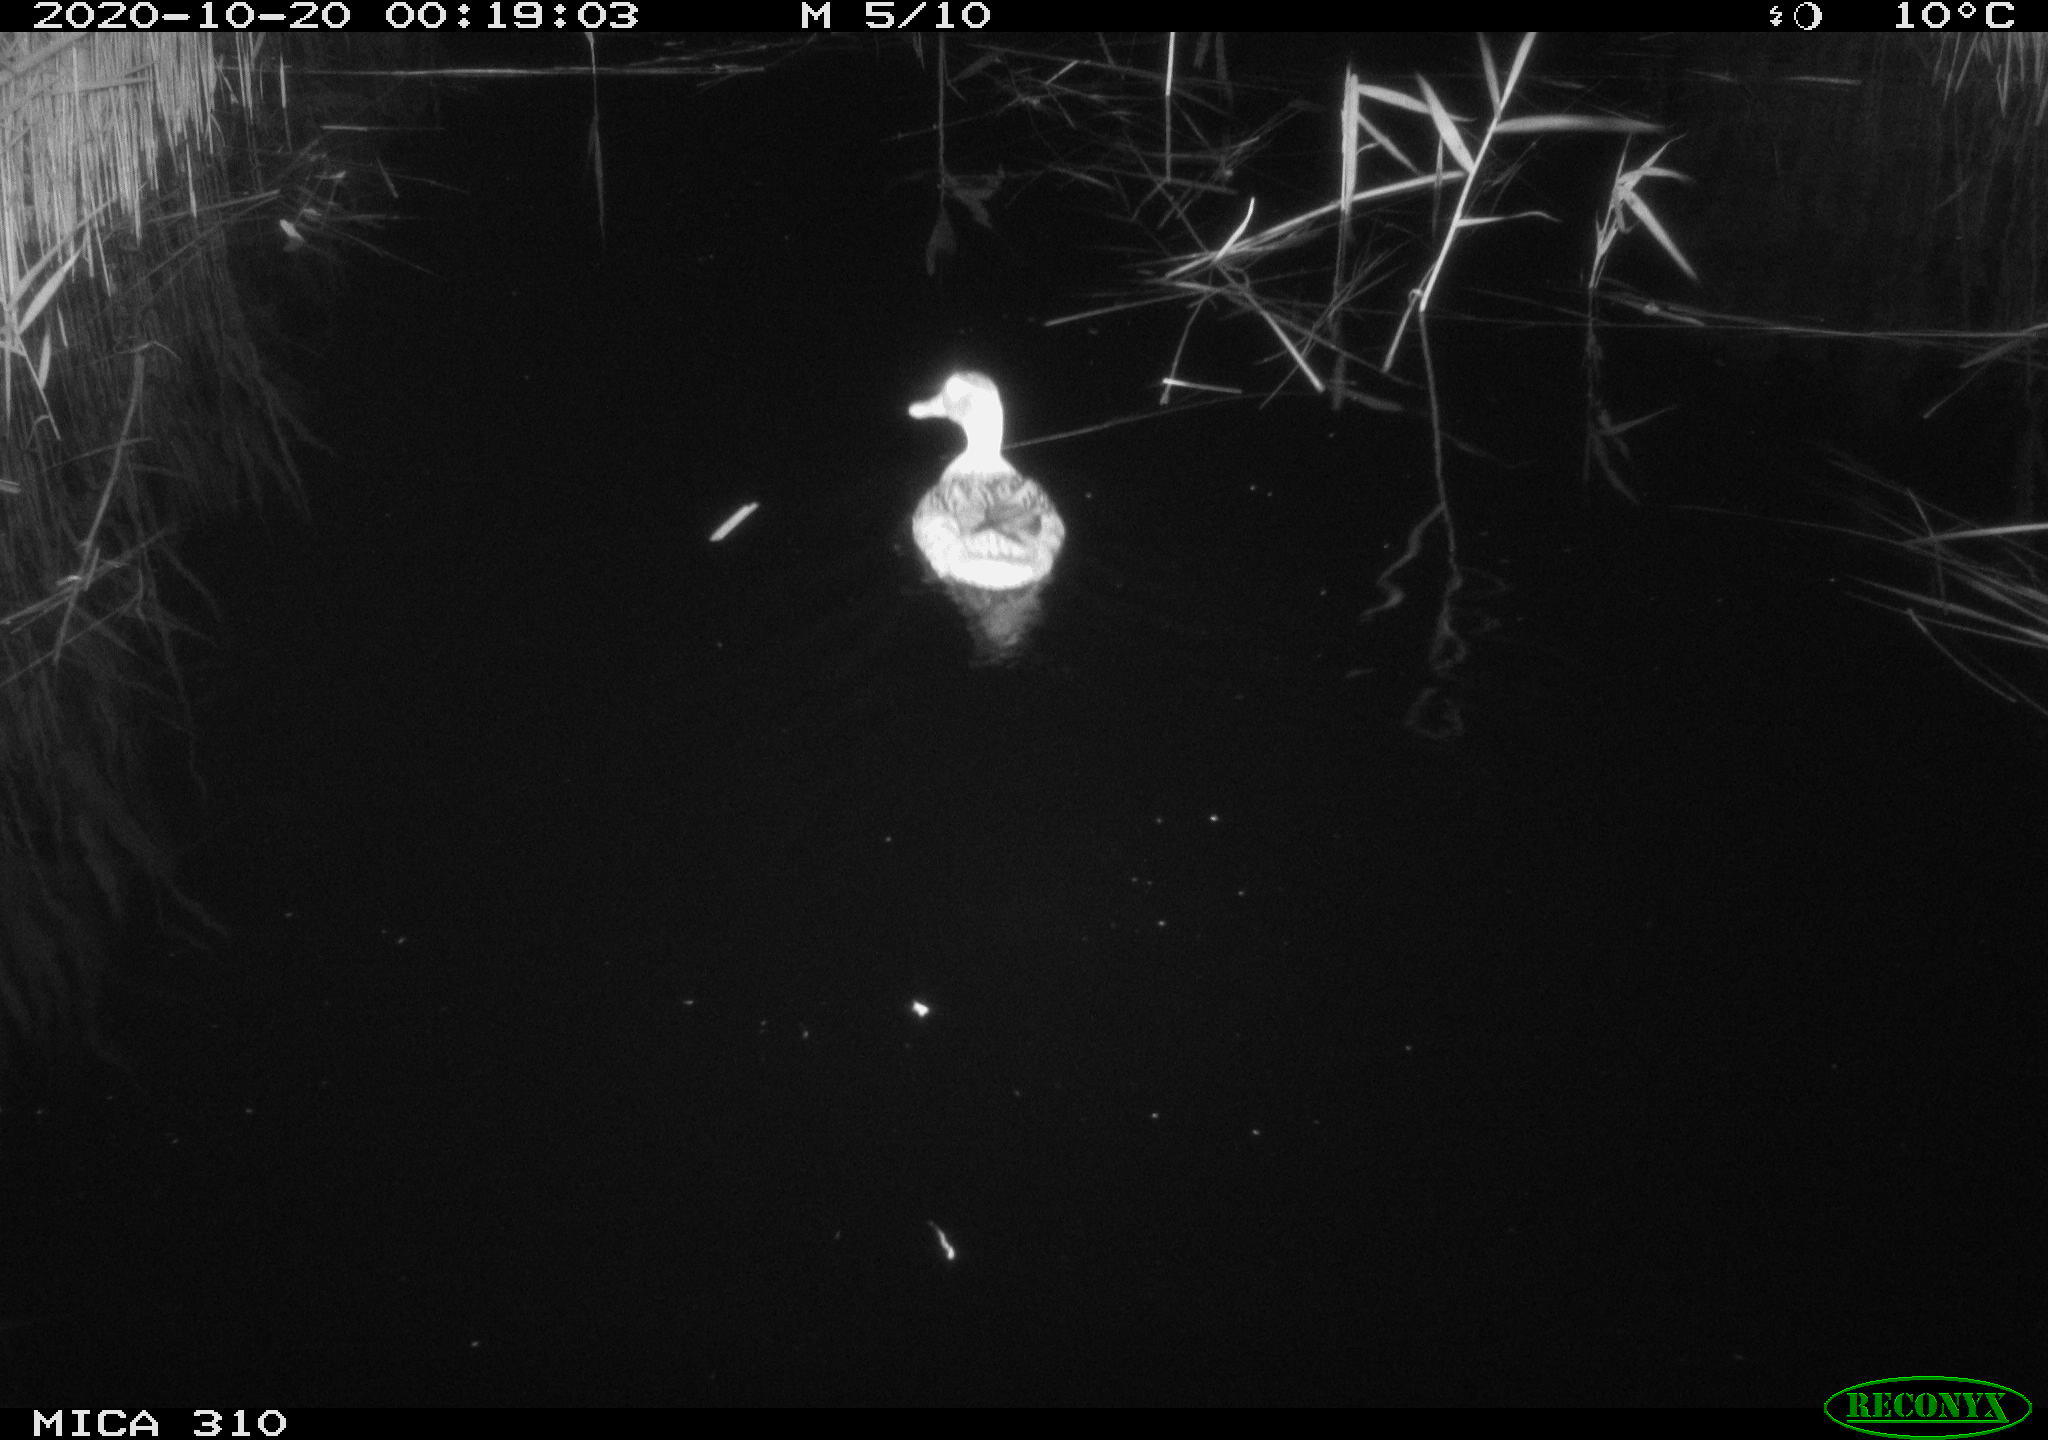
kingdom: Animalia
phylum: Chordata
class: Aves
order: Anseriformes
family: Anatidae
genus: Anas
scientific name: Anas platyrhynchos
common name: Mallard
